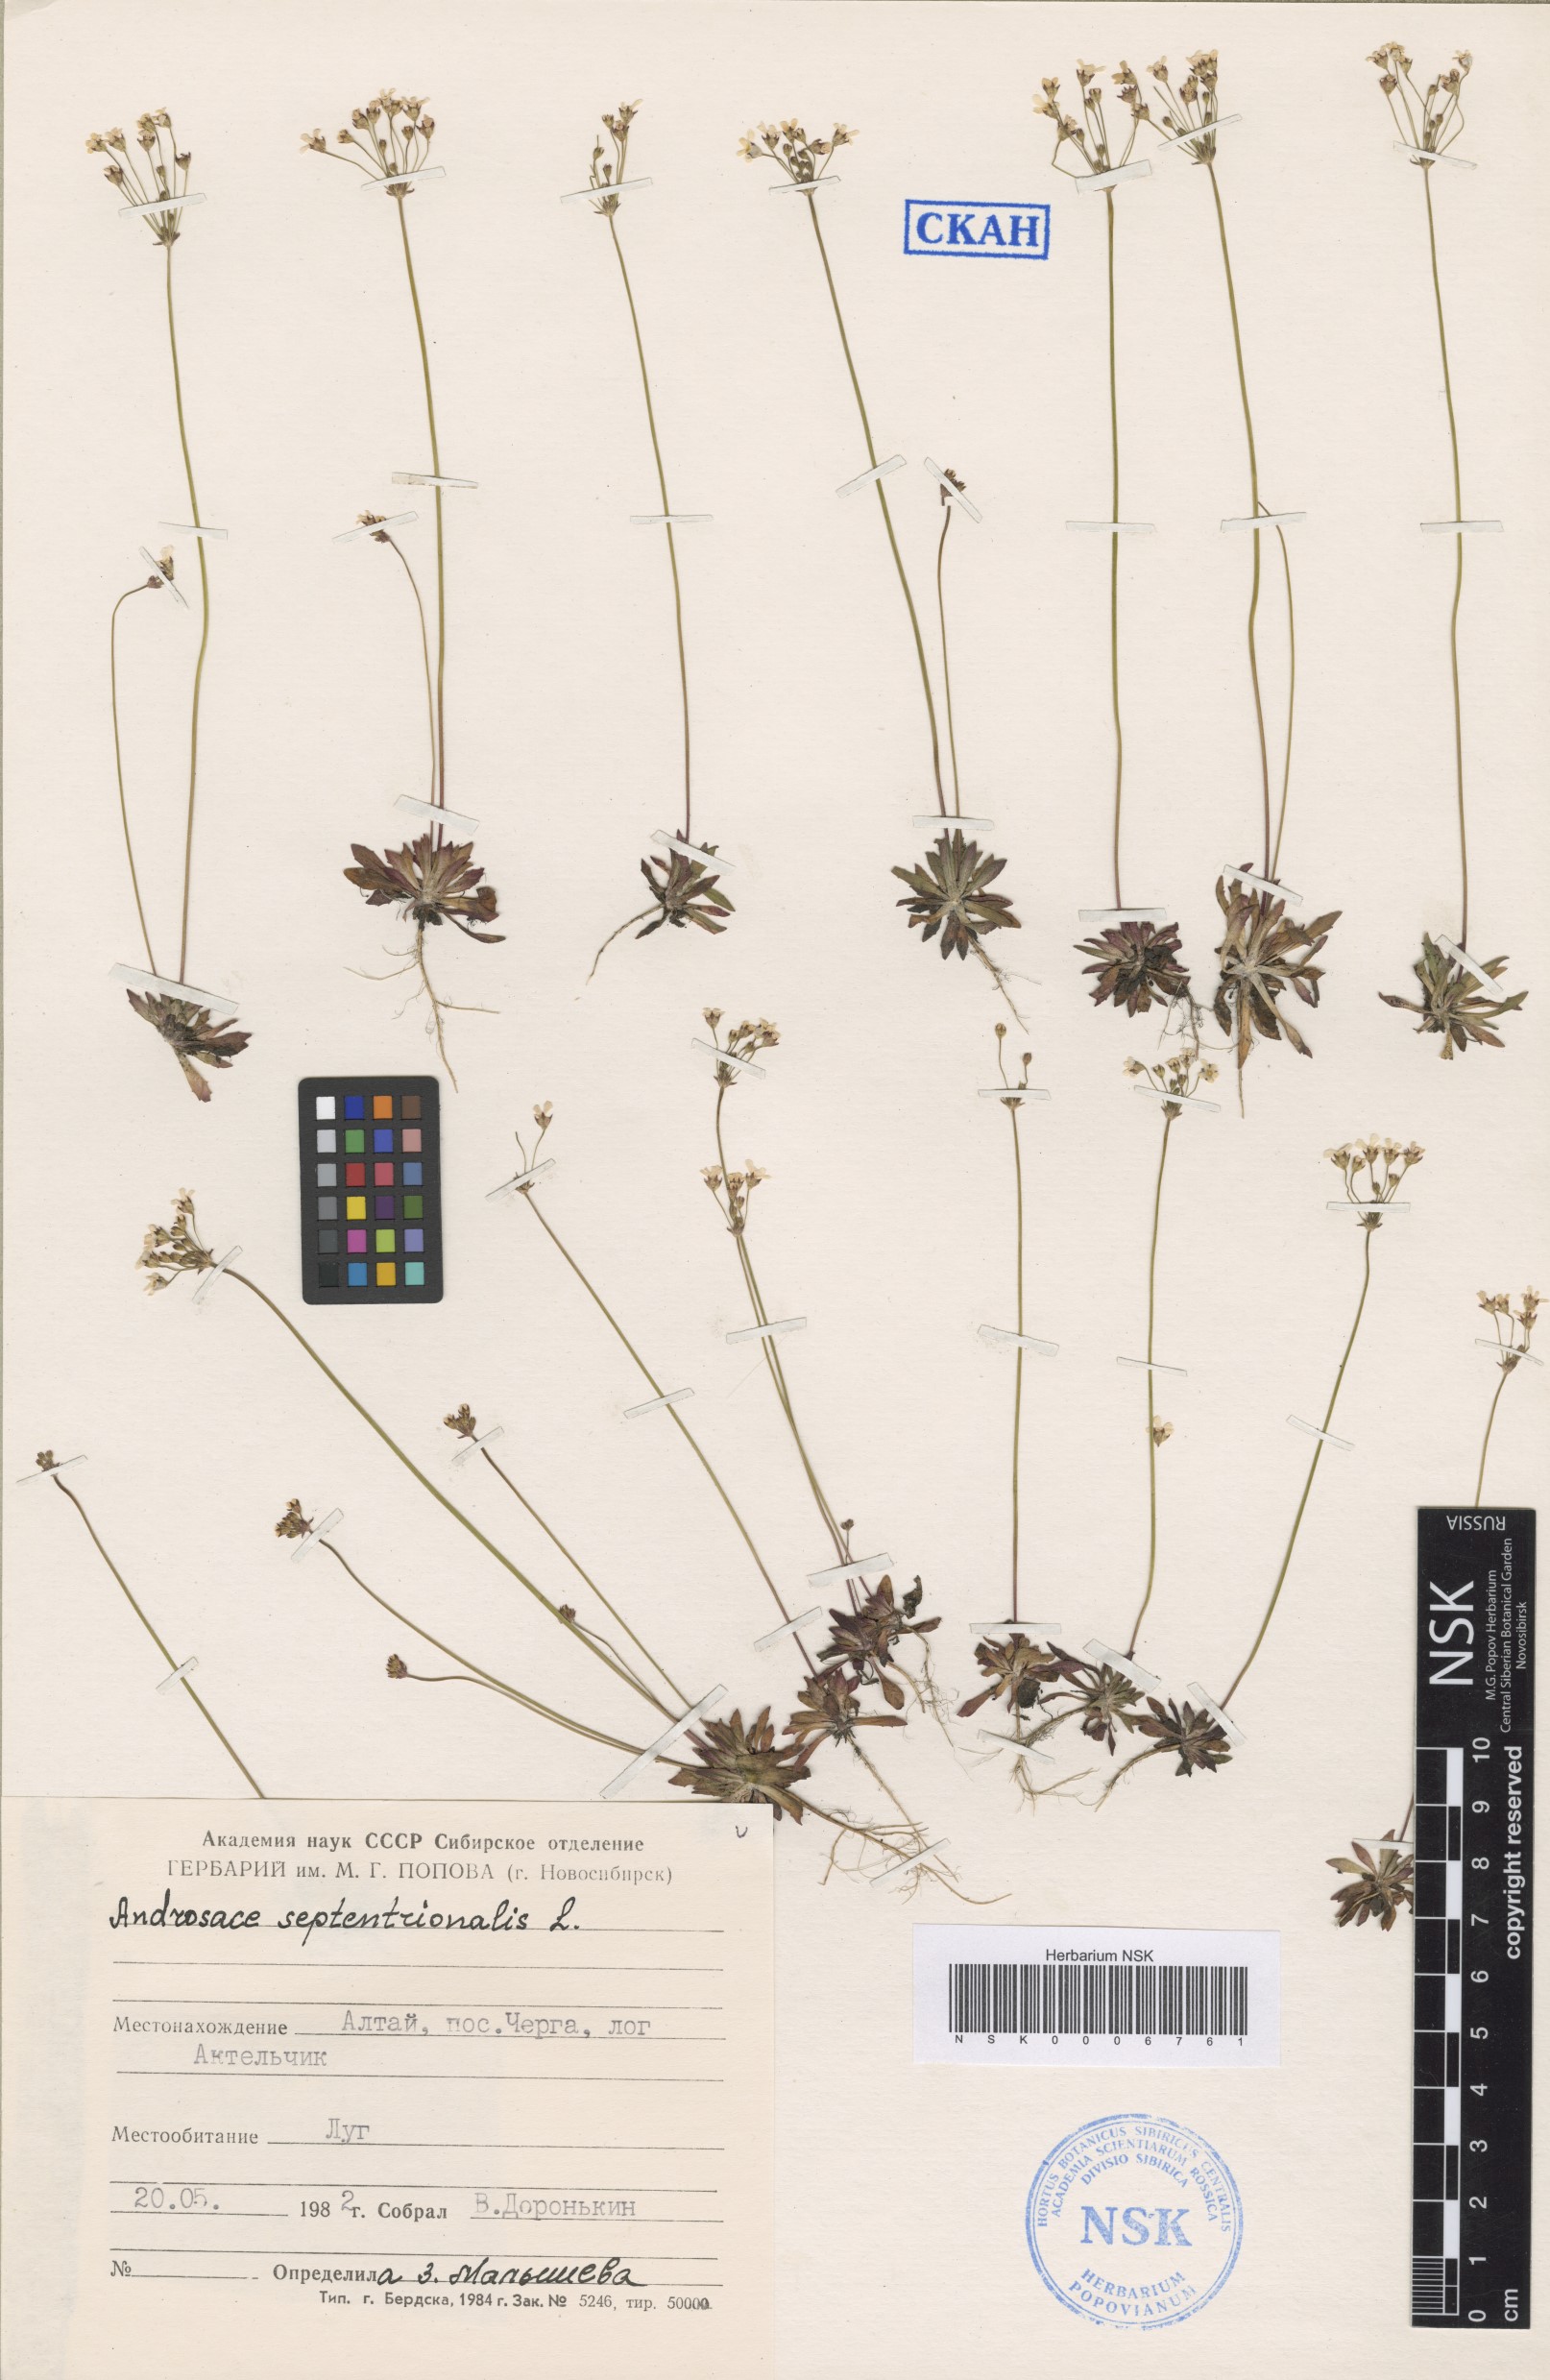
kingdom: Plantae
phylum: Tracheophyta
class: Magnoliopsida
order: Ericales
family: Primulaceae
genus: Androsace
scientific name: Androsace septentrionalis
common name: Hairy northern fairy-candelabra
